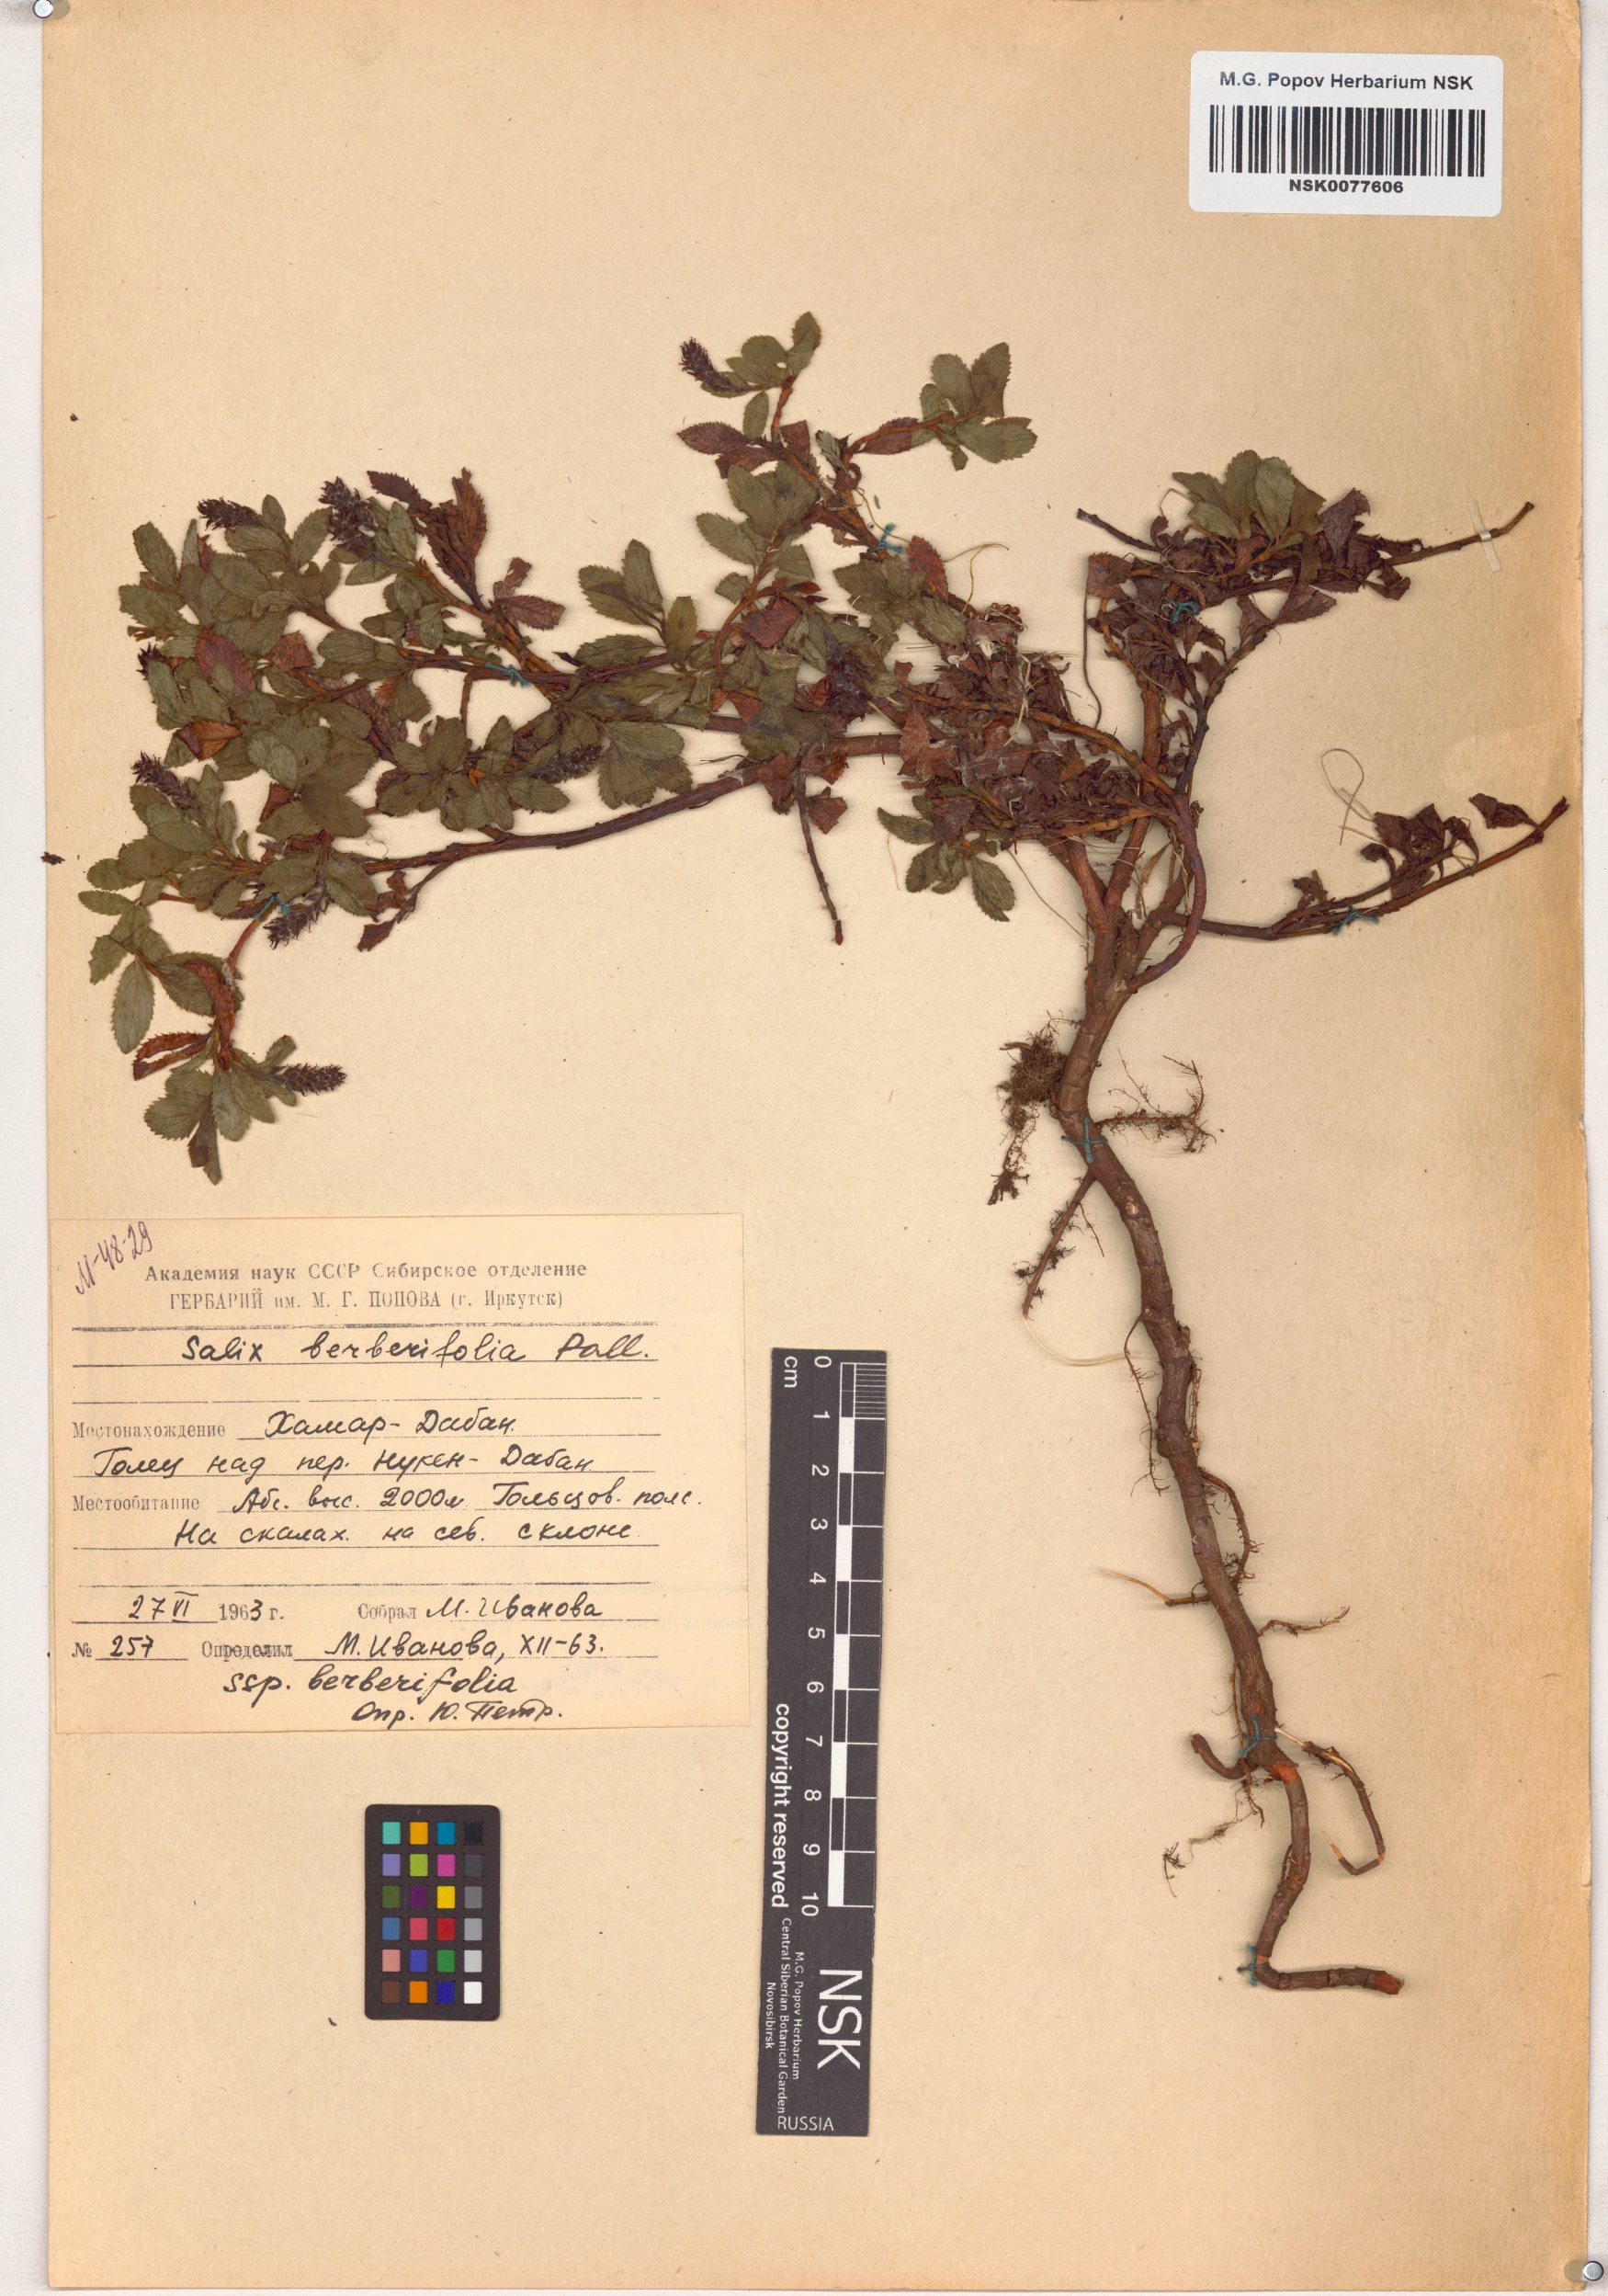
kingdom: Plantae
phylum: Tracheophyta
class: Magnoliopsida
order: Malpighiales
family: Salicaceae
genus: Salix
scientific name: Salix berberifolia
